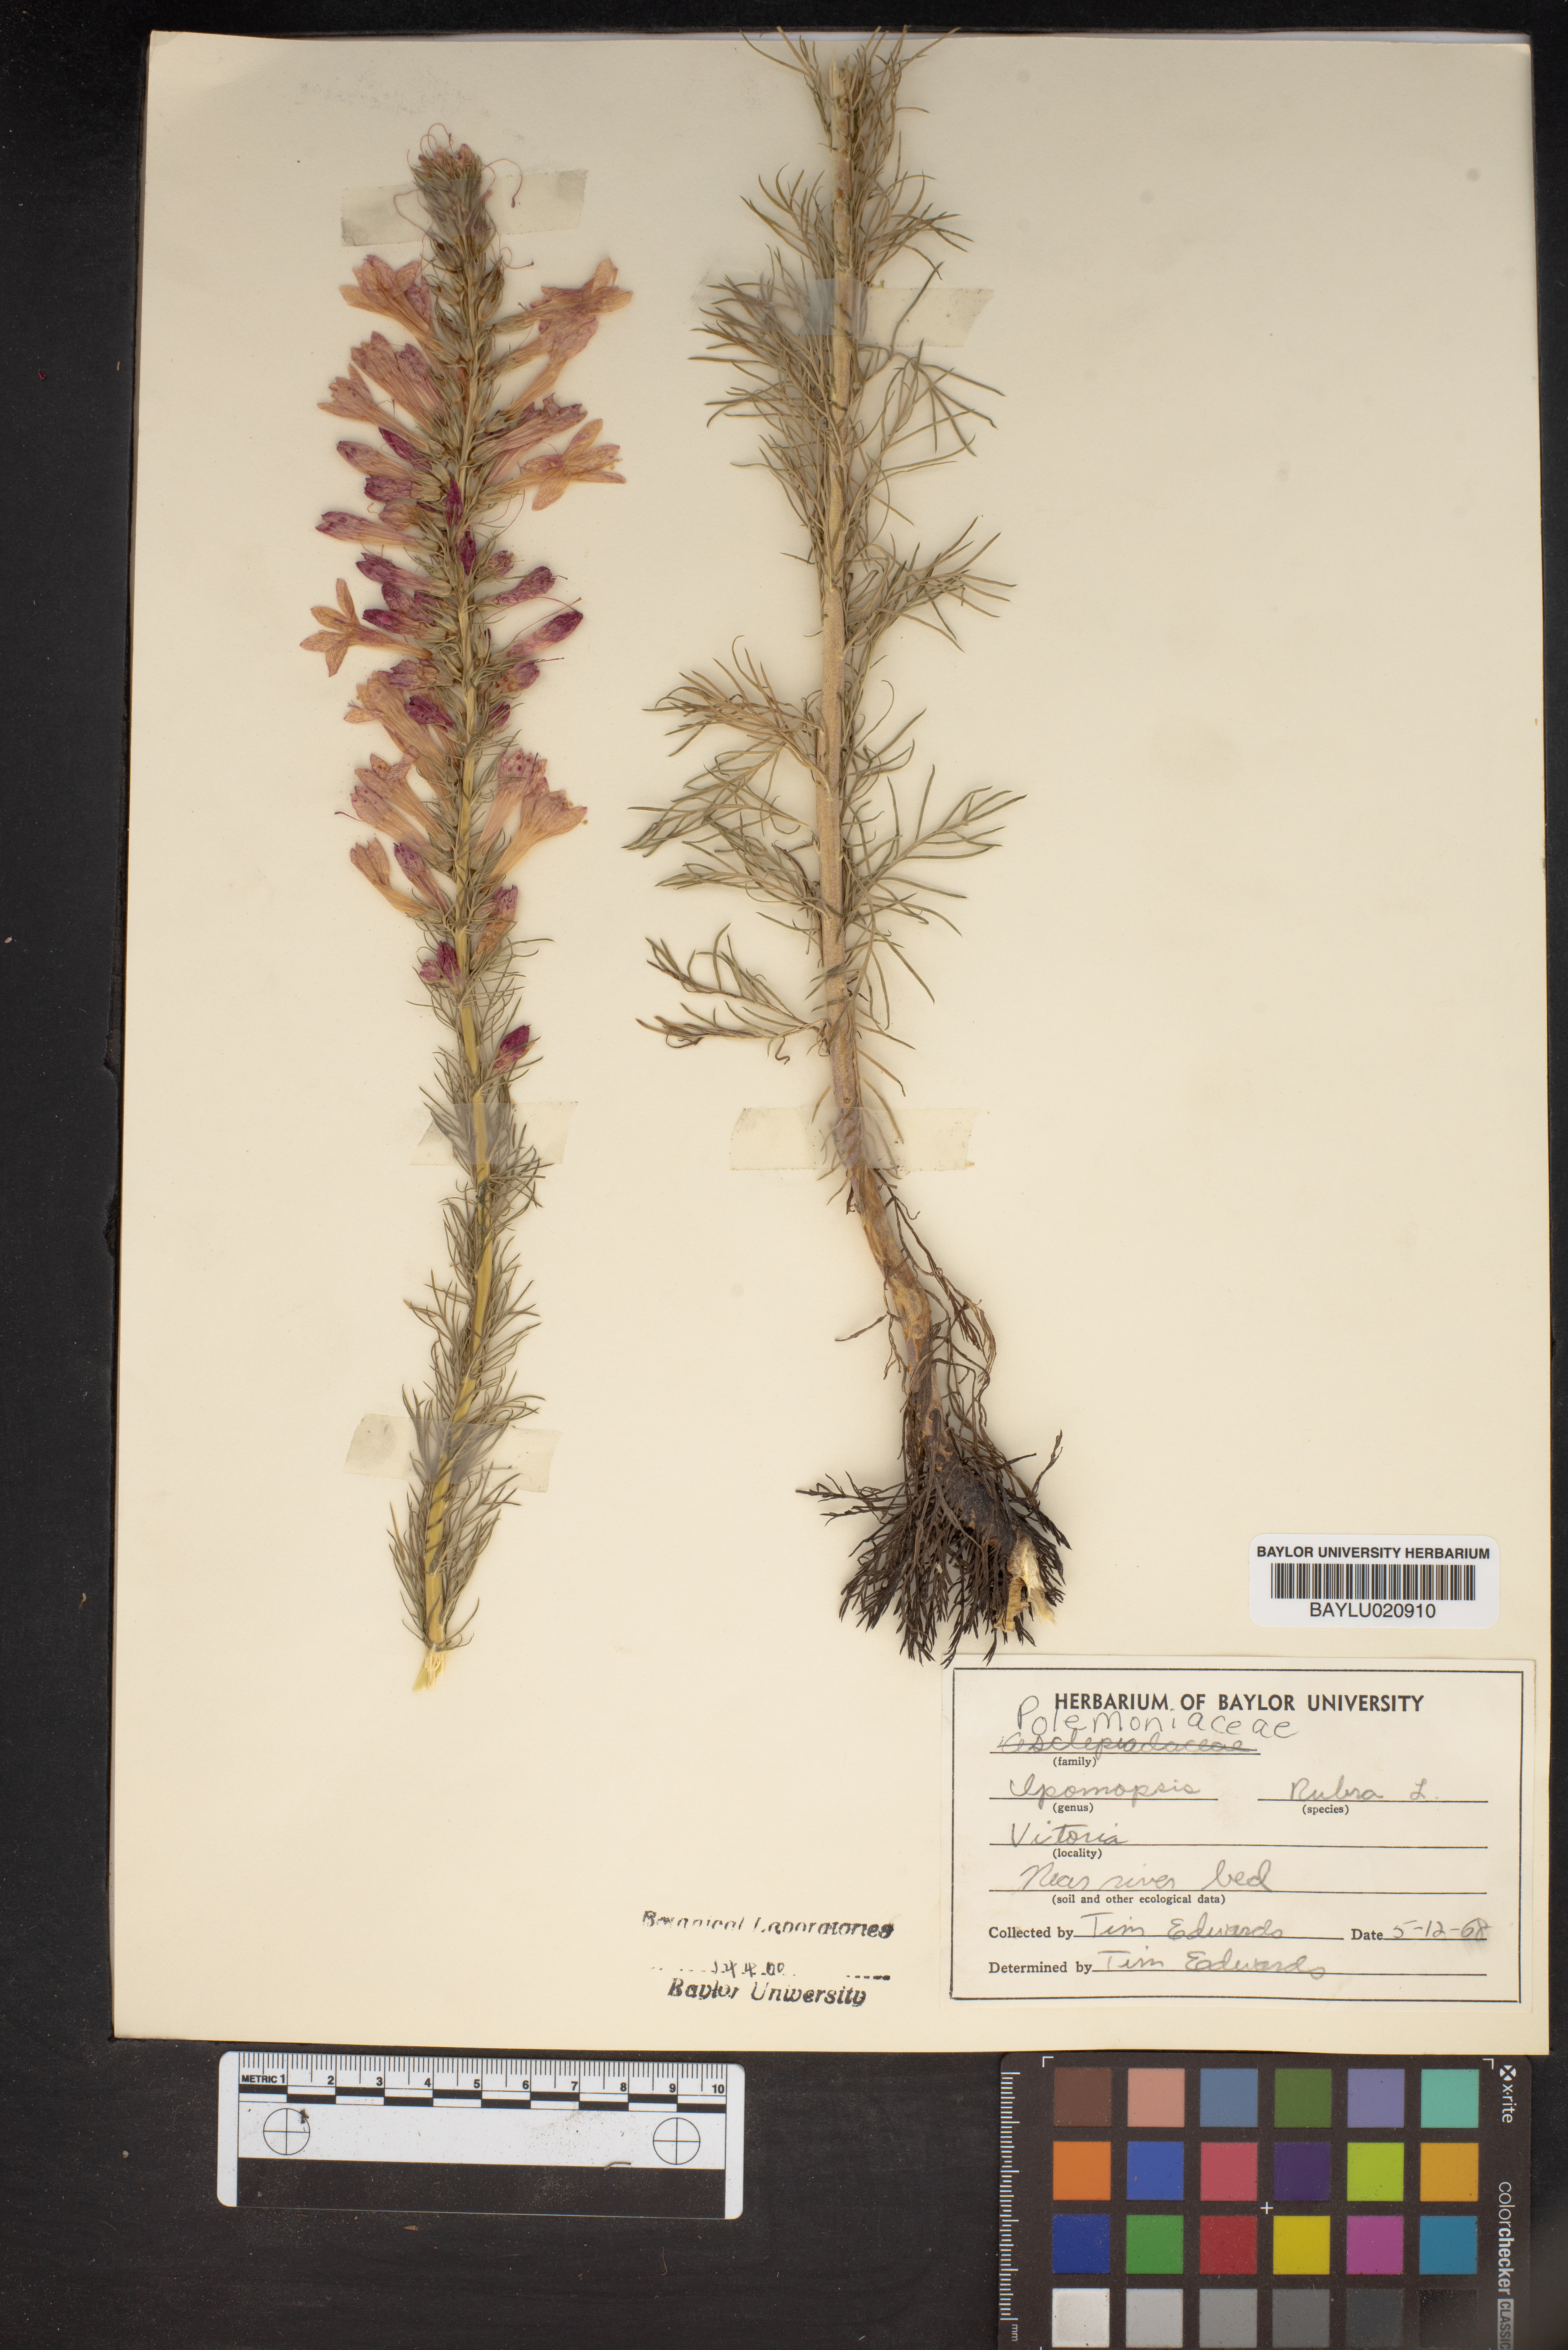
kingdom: Plantae
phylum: Tracheophyta
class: Magnoliopsida
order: Ericales
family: Polemoniaceae
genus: Ipomopsis
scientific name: Ipomopsis rubra
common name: Skyrocket
